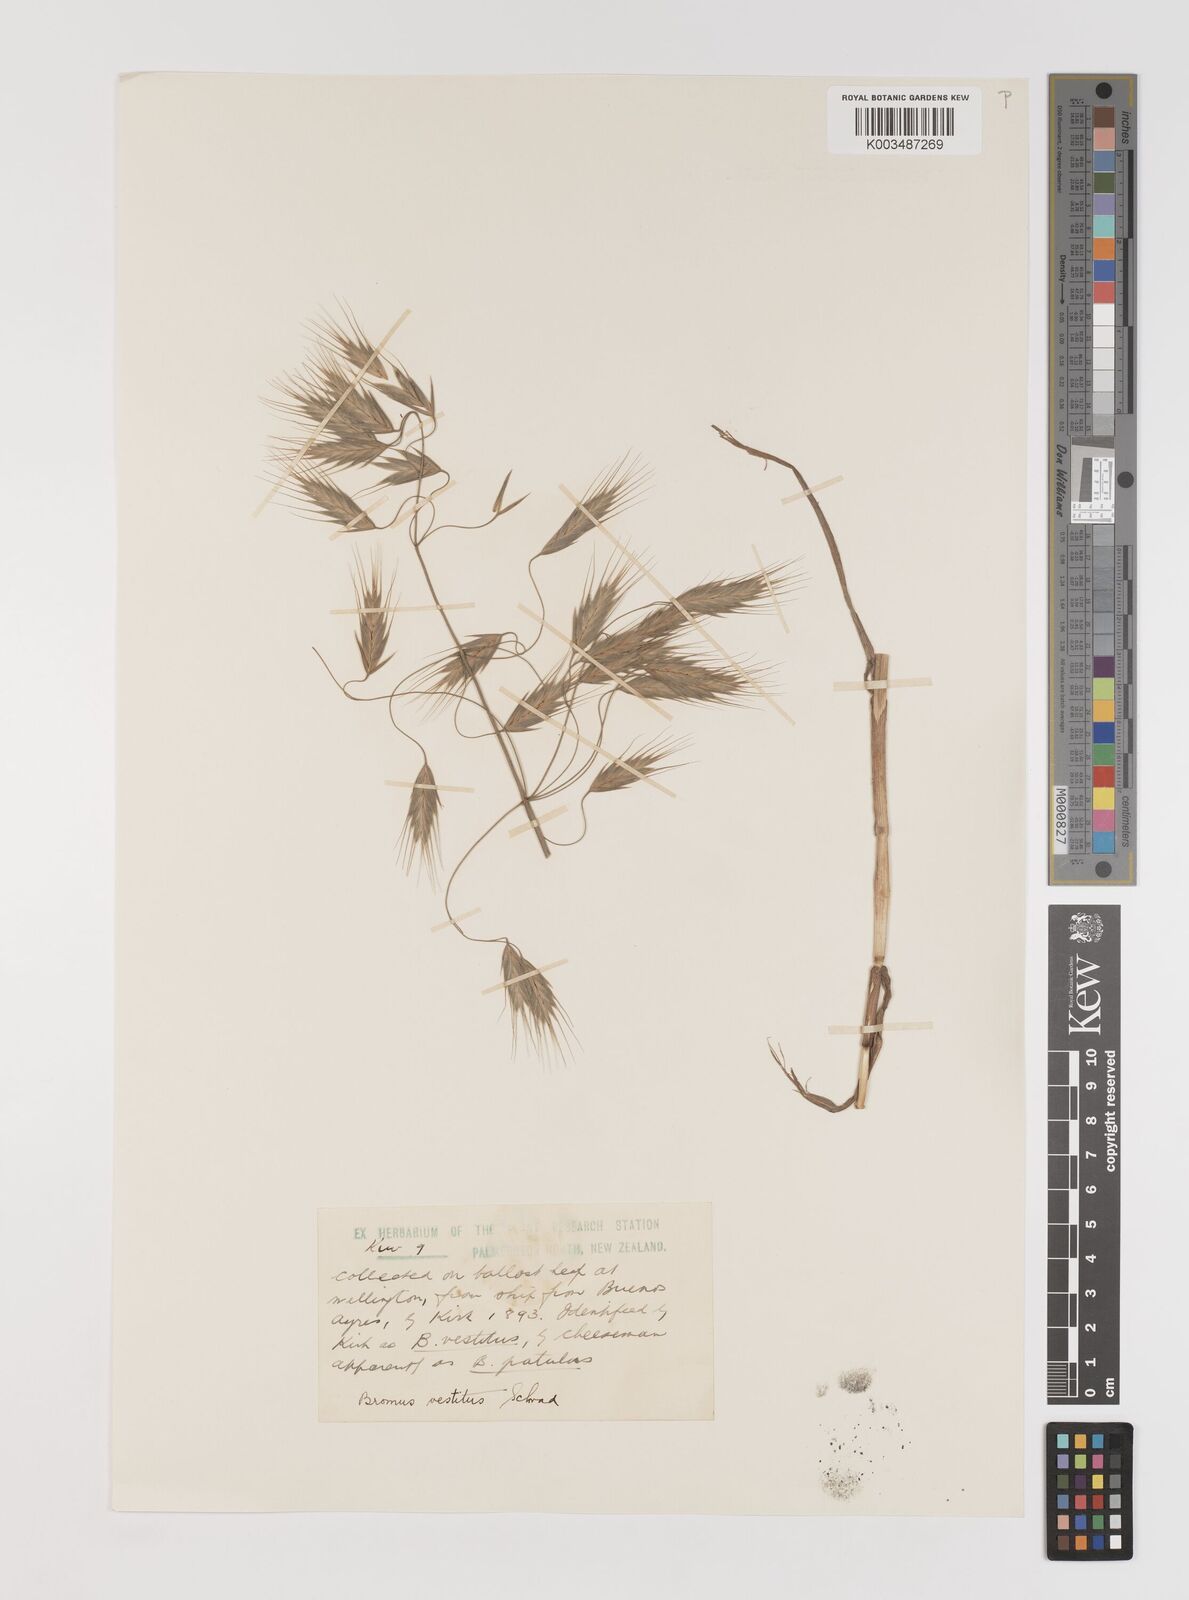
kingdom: Plantae
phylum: Tracheophyta
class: Liliopsida
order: Poales
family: Poaceae
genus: Bromus
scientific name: Bromus pectinatus
